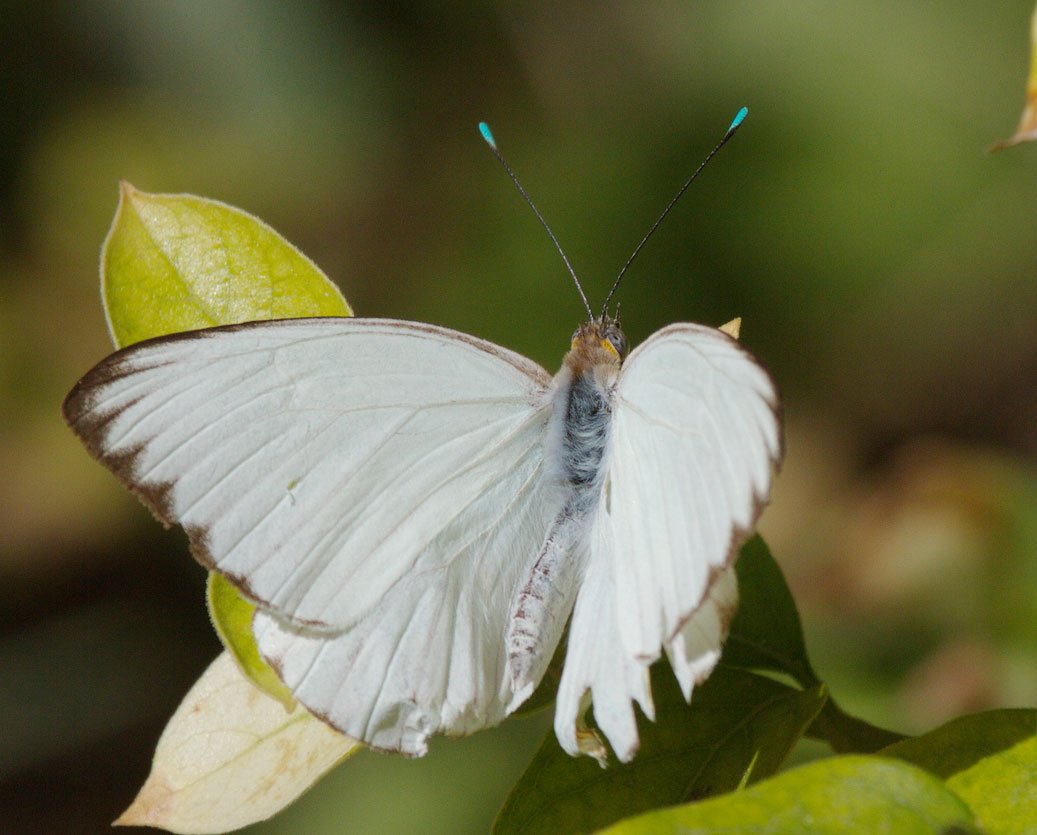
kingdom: Animalia
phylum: Arthropoda
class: Insecta
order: Lepidoptera
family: Pieridae
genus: Ascia
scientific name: Ascia monuste
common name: Great Southern White
